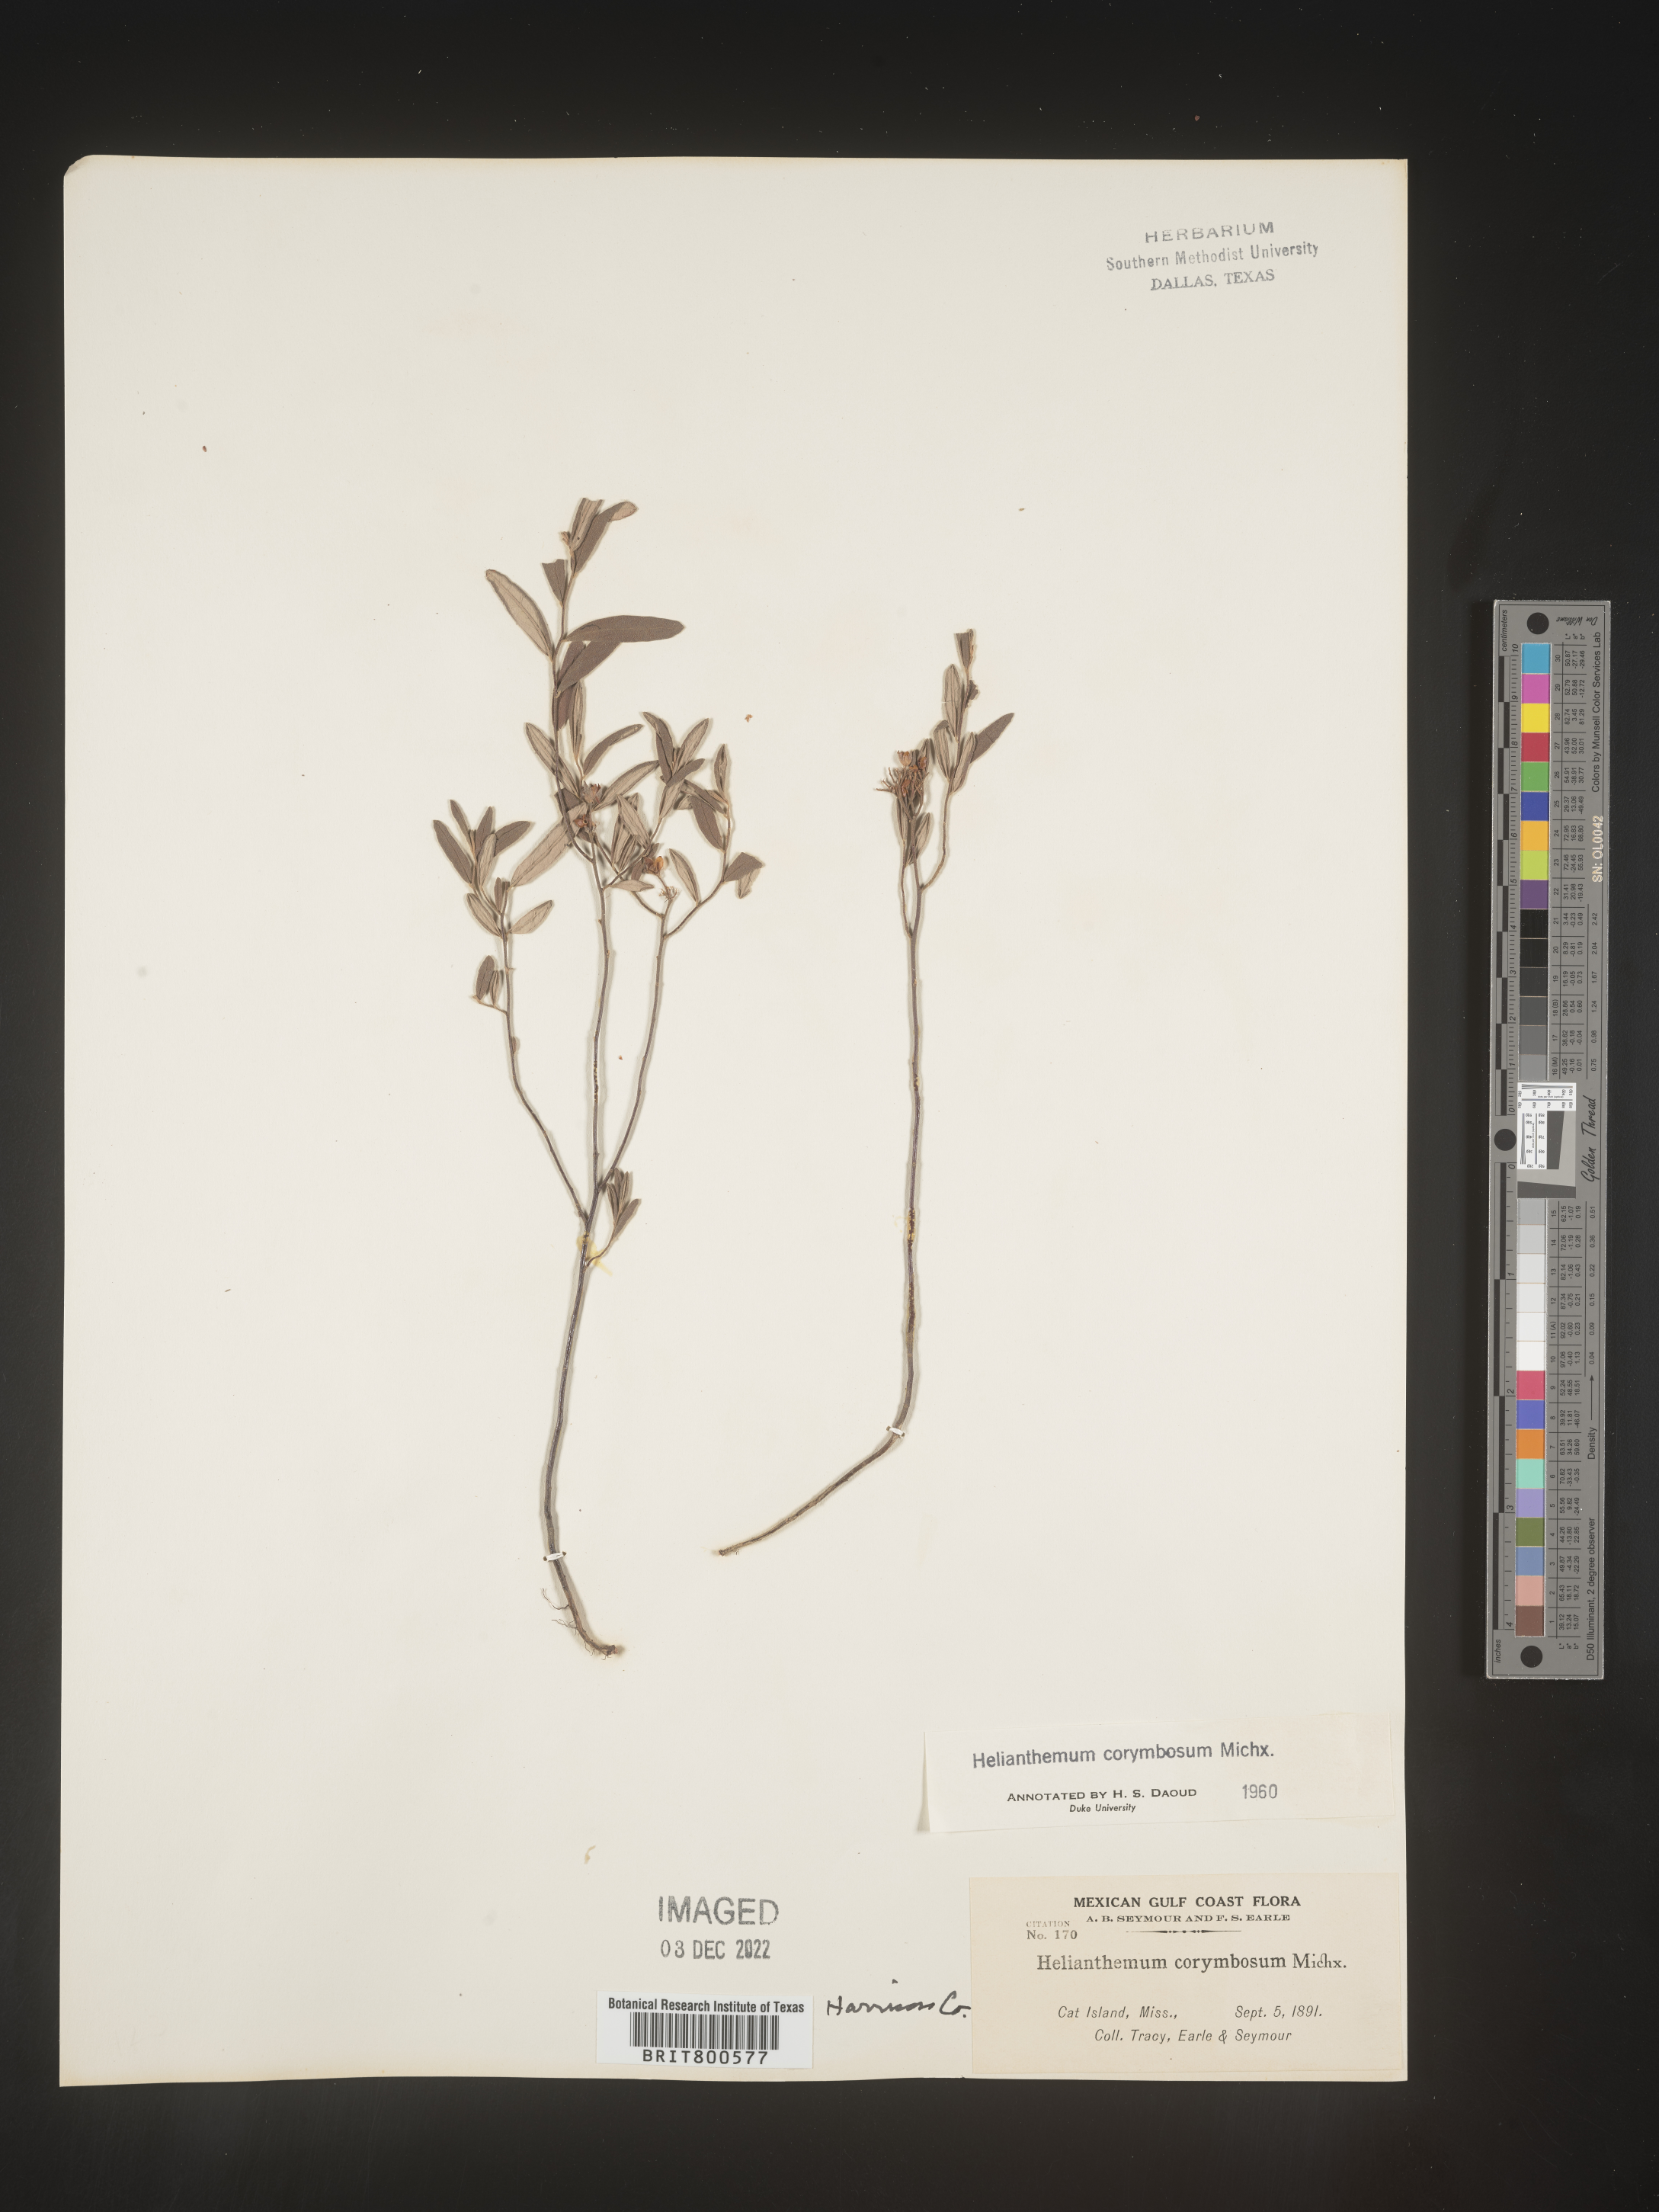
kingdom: Plantae
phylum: Tracheophyta
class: Magnoliopsida
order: Malvales
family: Cistaceae
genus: Crocanthemum
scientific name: Crocanthemum corymbosum
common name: Pinebarren sun-rose
